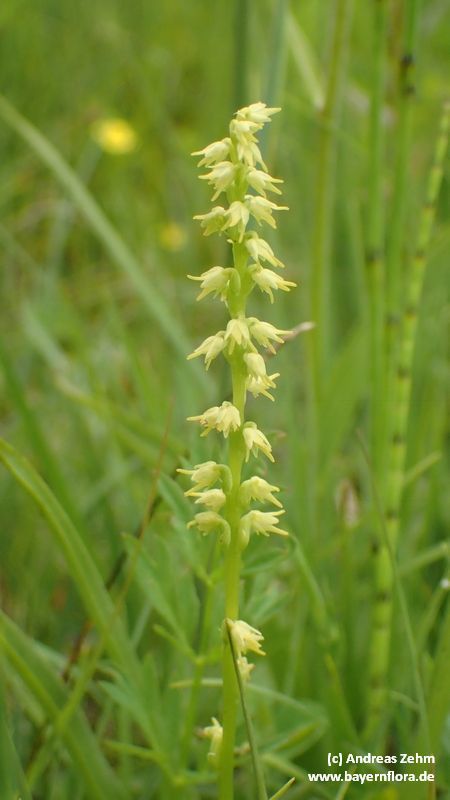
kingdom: Plantae
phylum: Tracheophyta
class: Liliopsida
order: Asparagales
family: Orchidaceae
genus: Herminium
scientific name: Herminium monorchis
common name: Musk orchid
